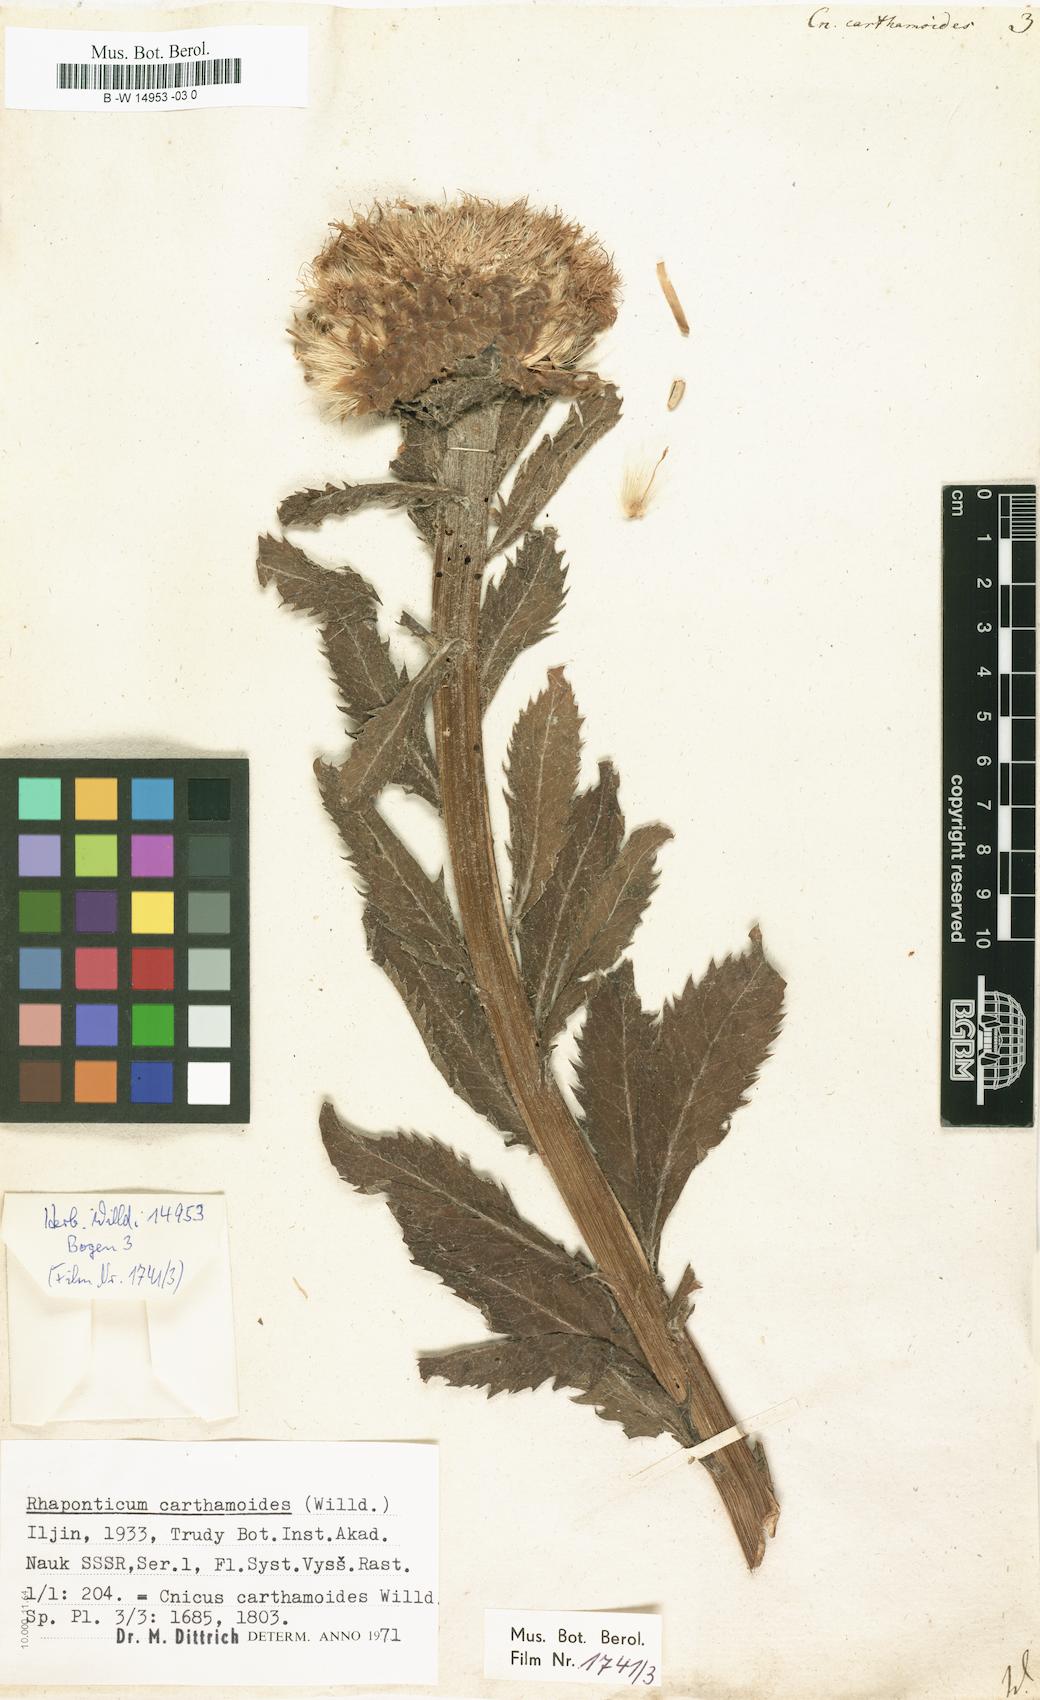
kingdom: Plantae
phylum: Tracheophyta
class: Magnoliopsida
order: Asterales
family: Asteraceae
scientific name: Asteraceae
